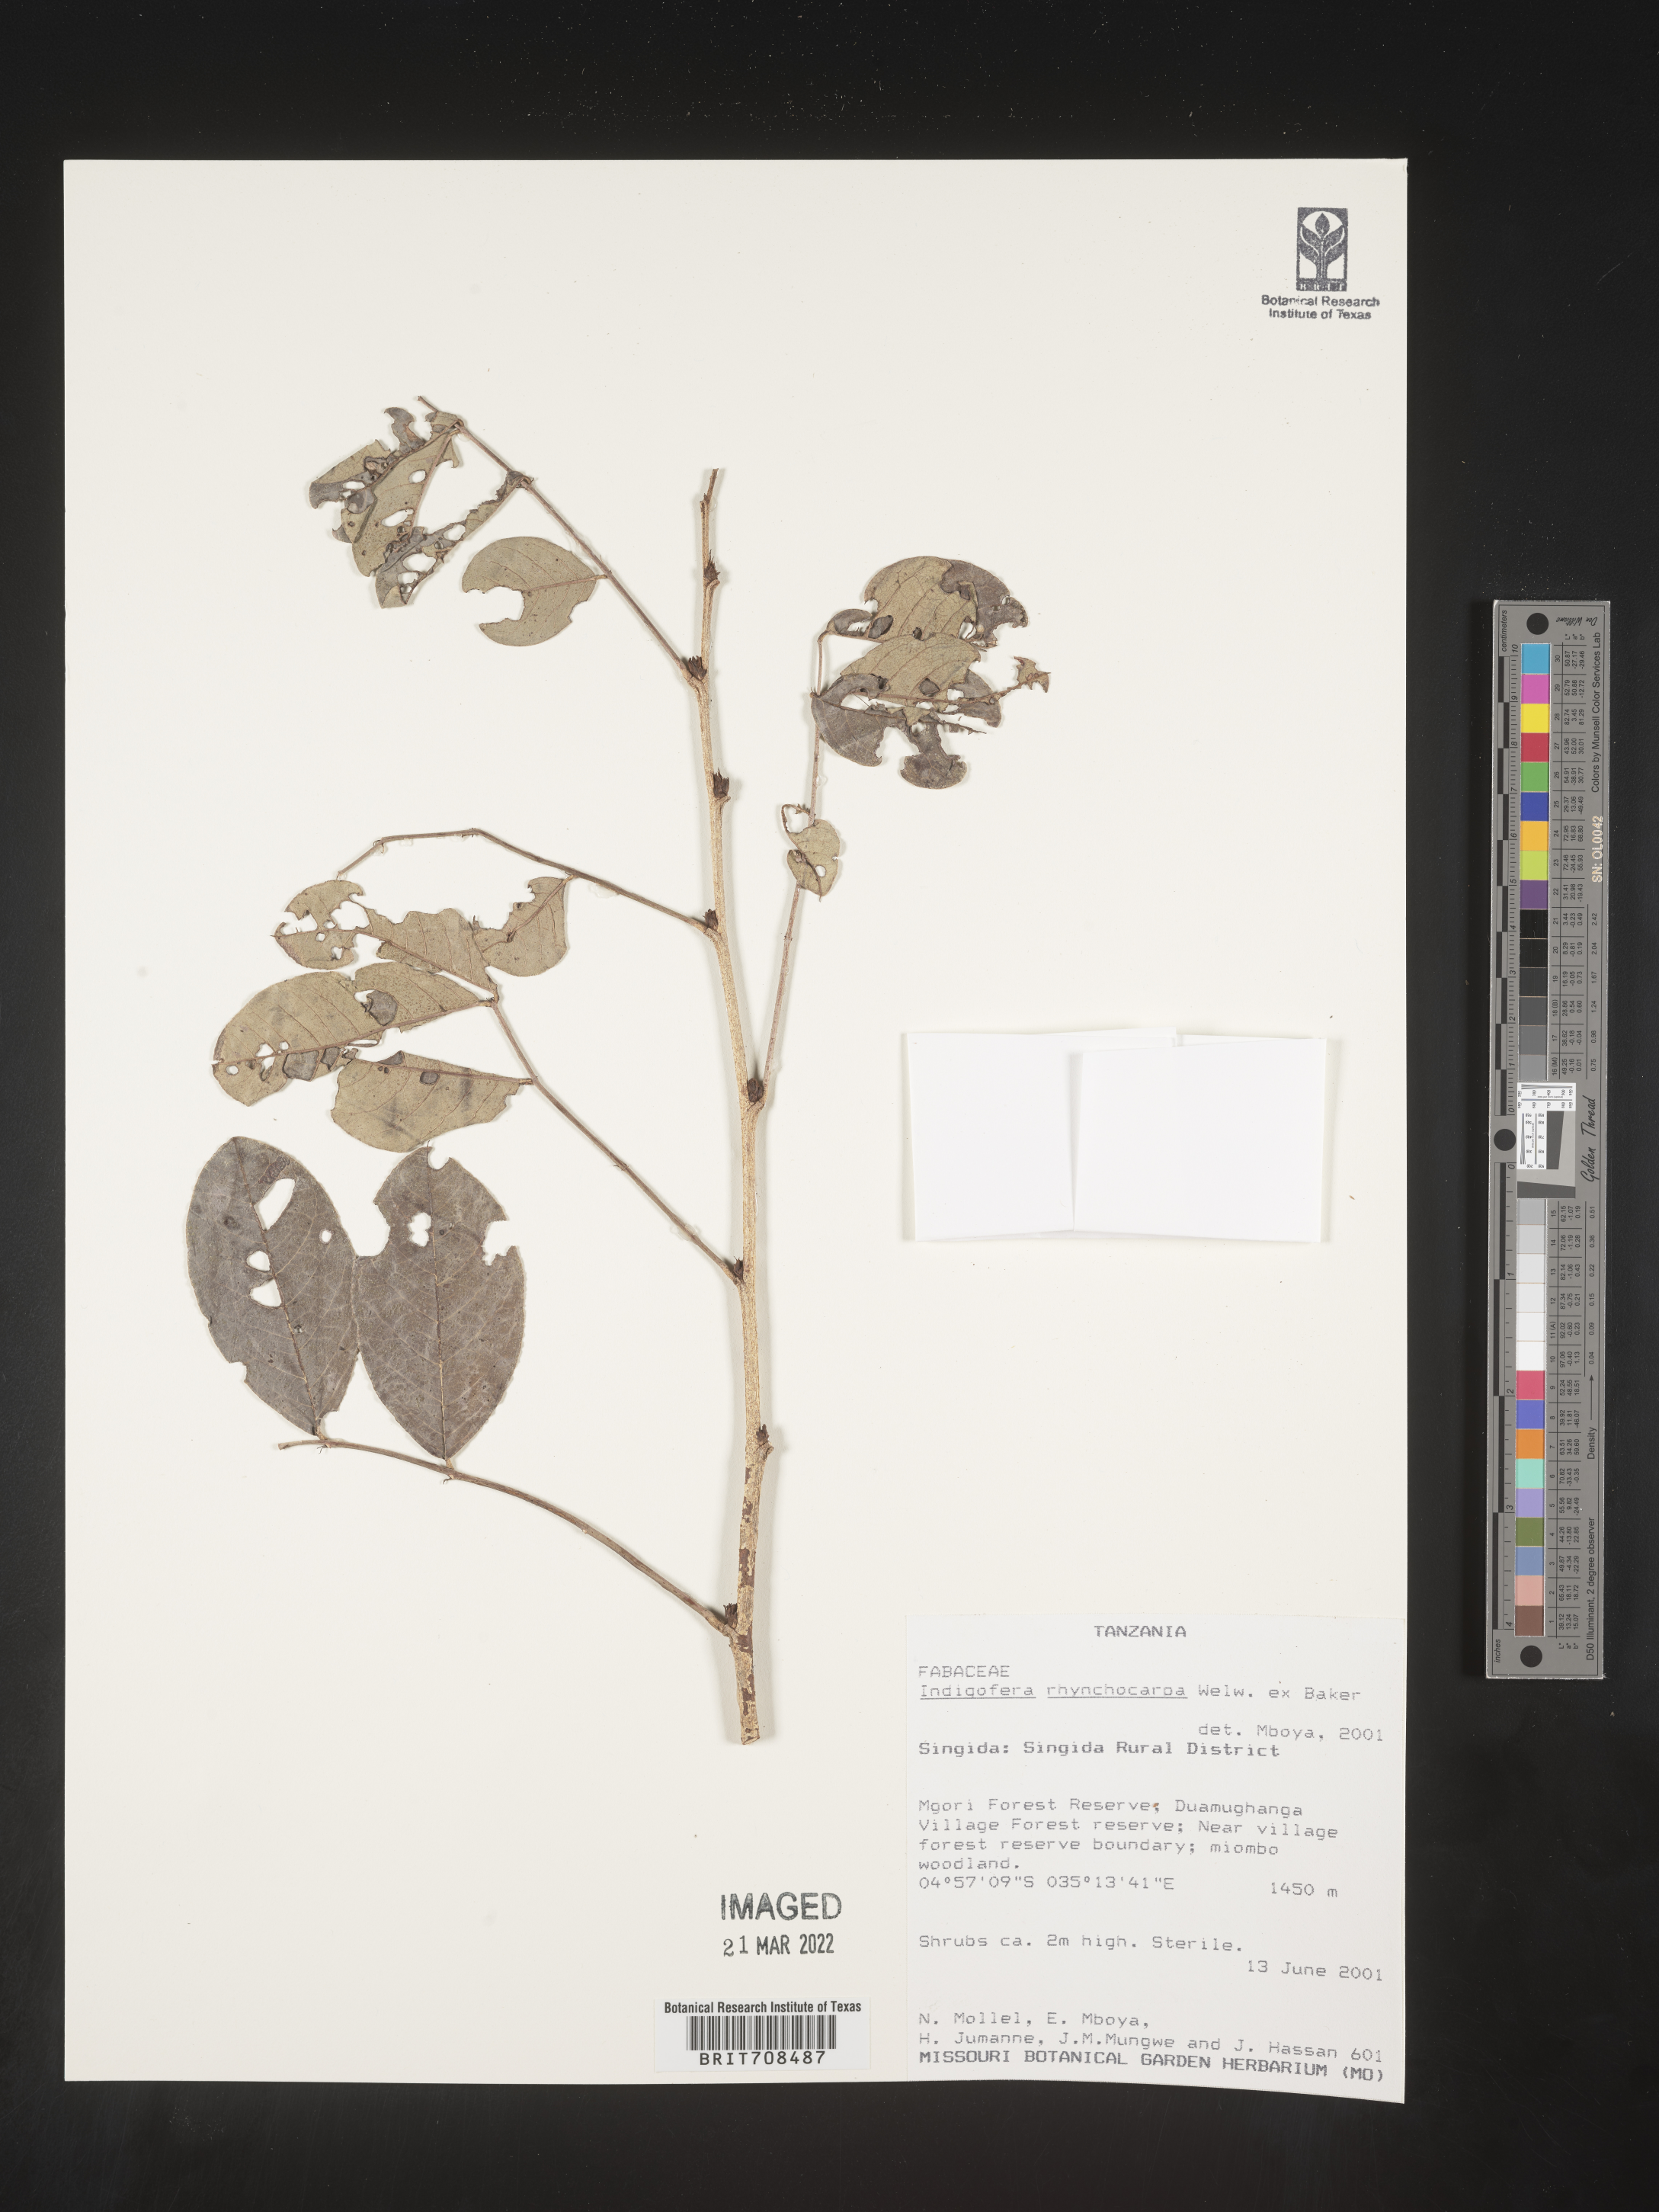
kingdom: Plantae
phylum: Tracheophyta
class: Magnoliopsida
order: Fabales
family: Fabaceae
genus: Indigofera
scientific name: Indigofera
